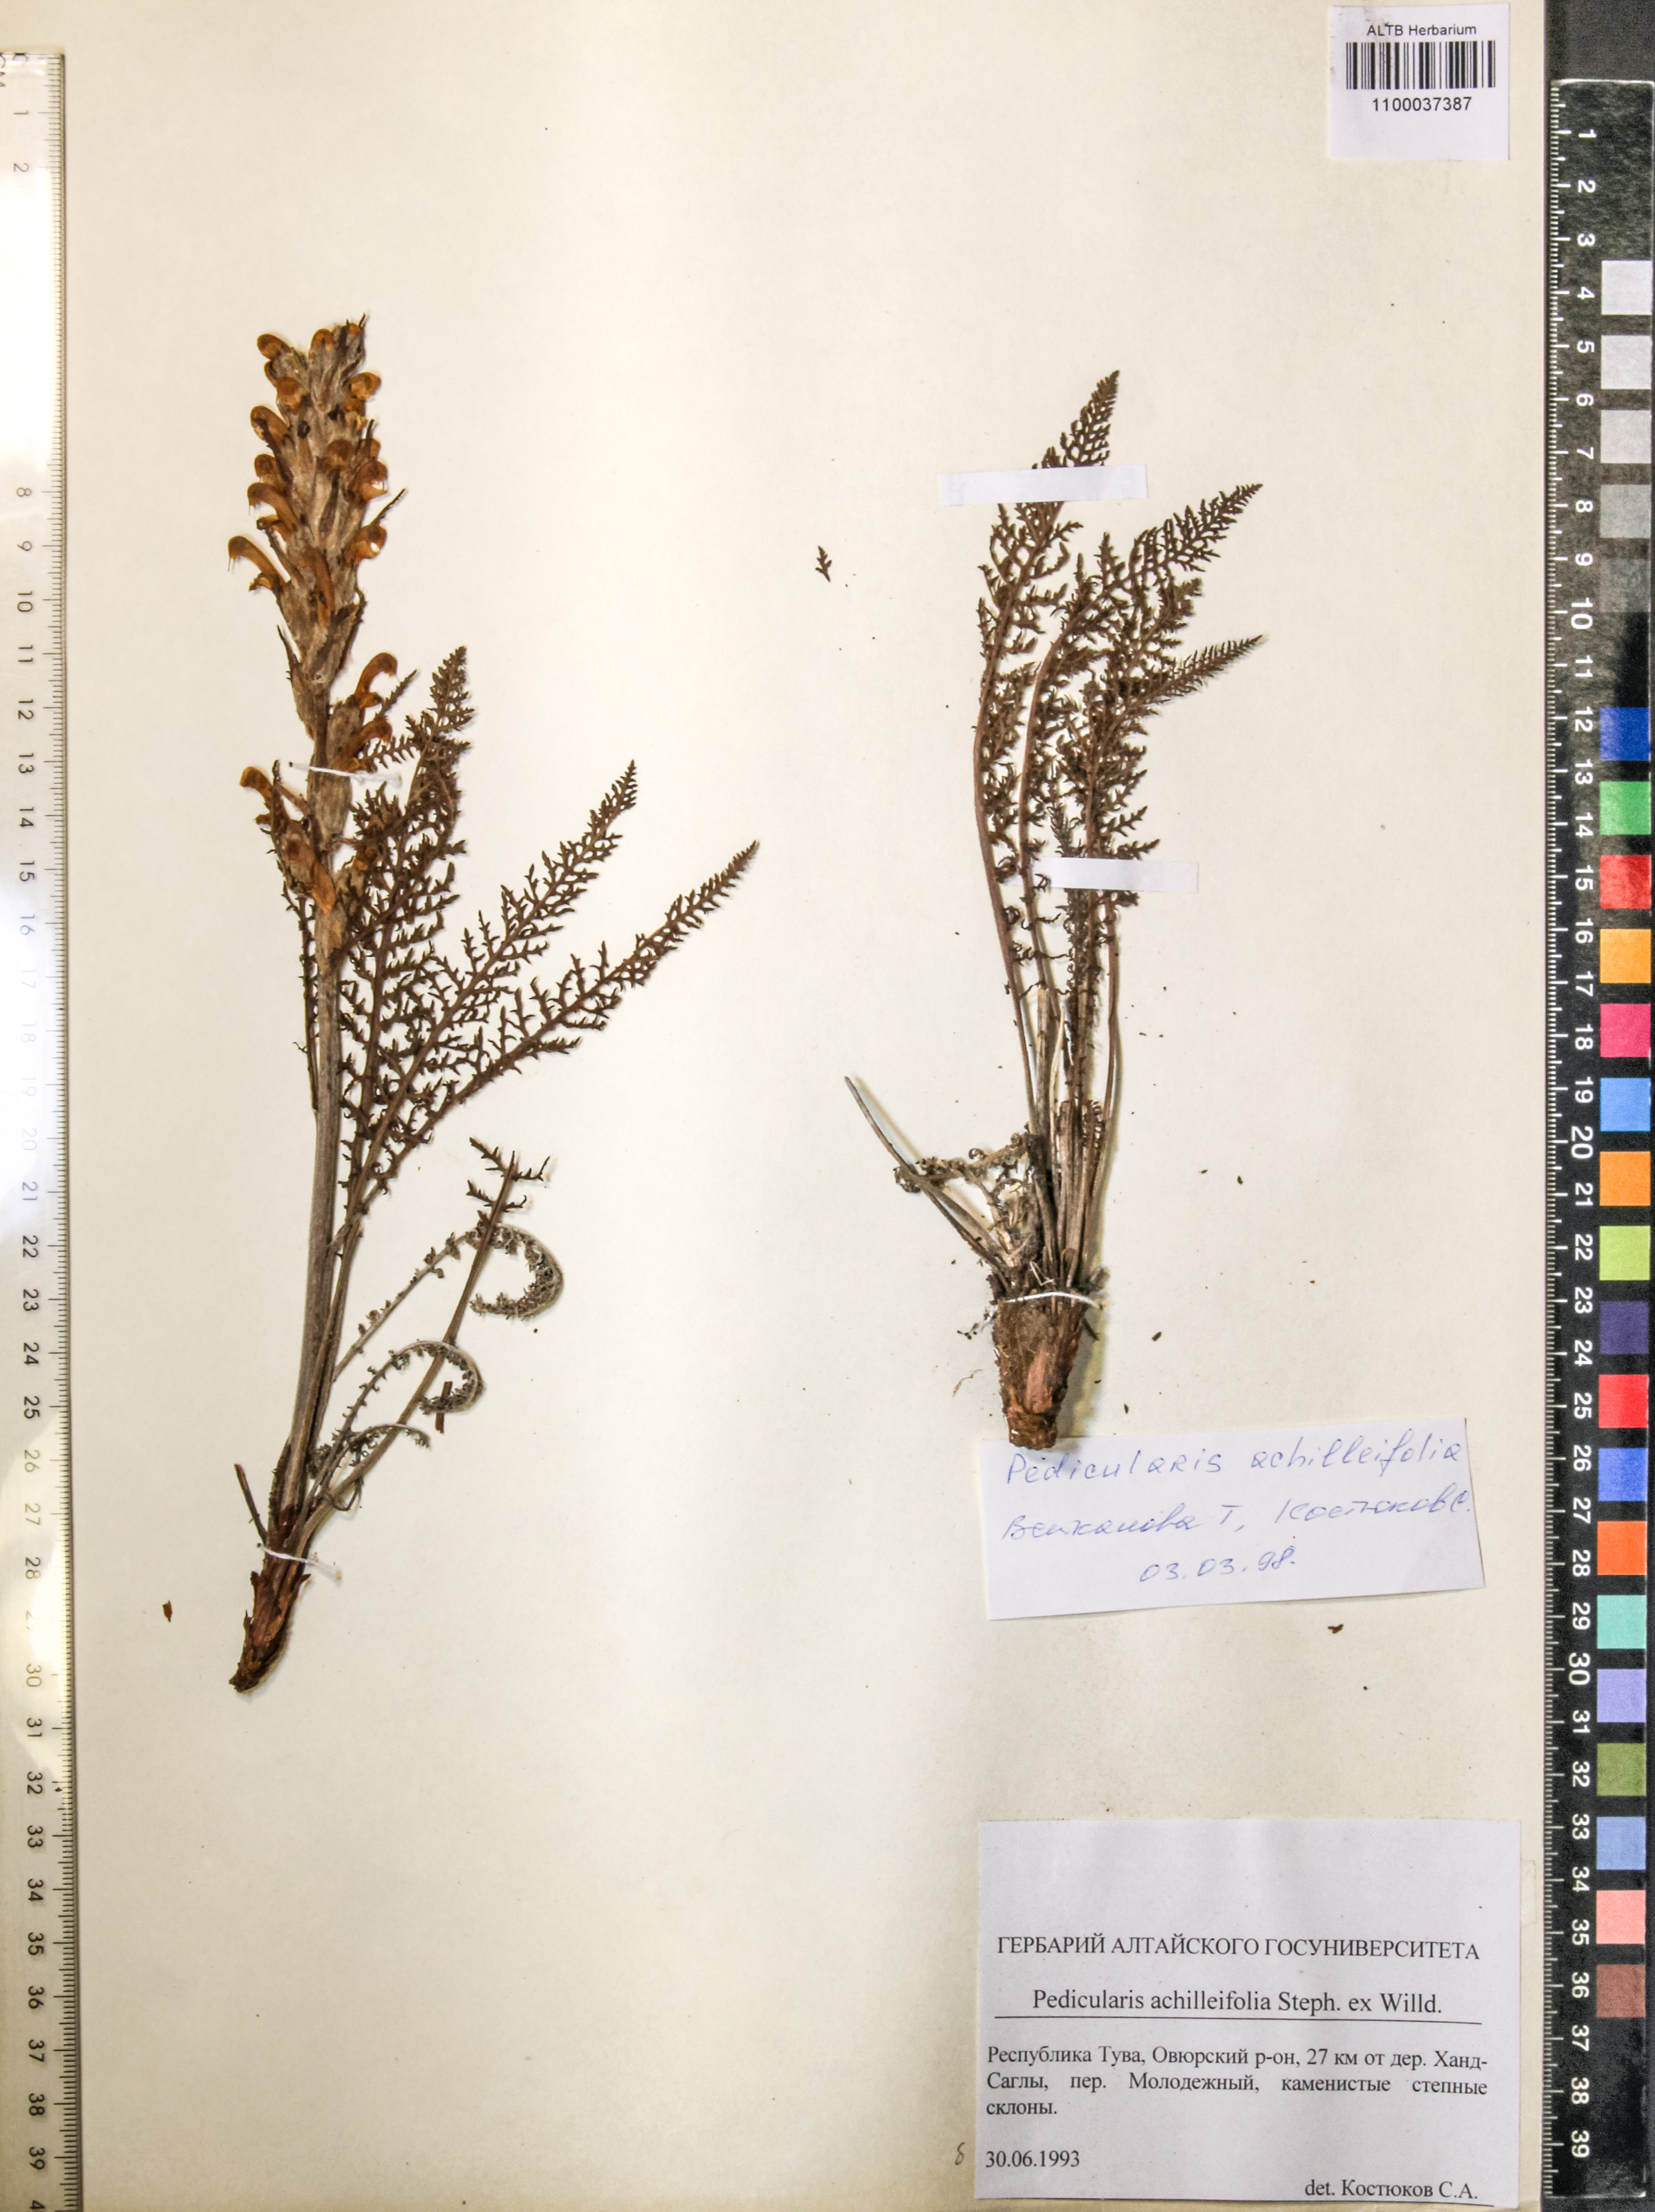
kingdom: Plantae
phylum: Tracheophyta
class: Magnoliopsida
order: Lamiales
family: Orobanchaceae
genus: Pedicularis
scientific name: Pedicularis achilleifolia
